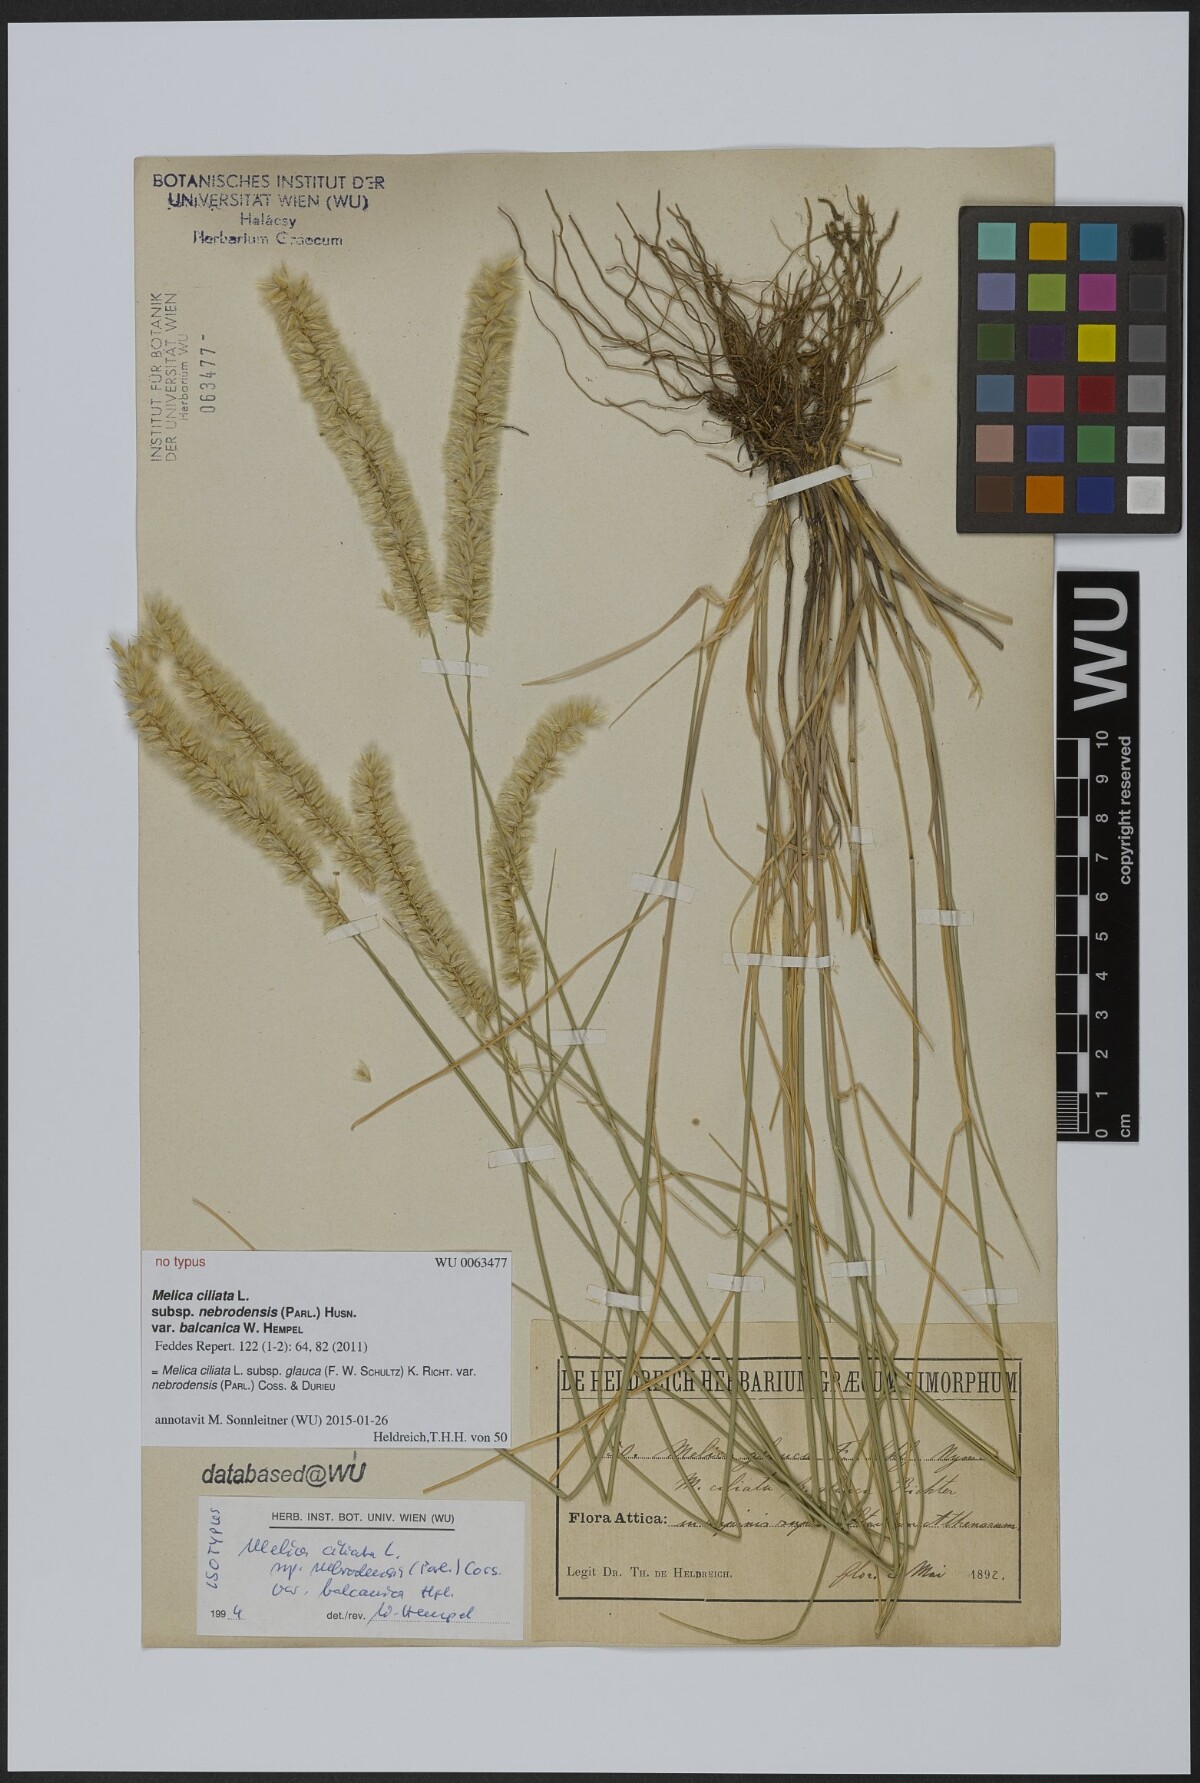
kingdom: Plantae
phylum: Tracheophyta
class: Liliopsida
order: Poales
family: Poaceae
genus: Melica
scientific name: Melica ciliata
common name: Hairy melicgrass
